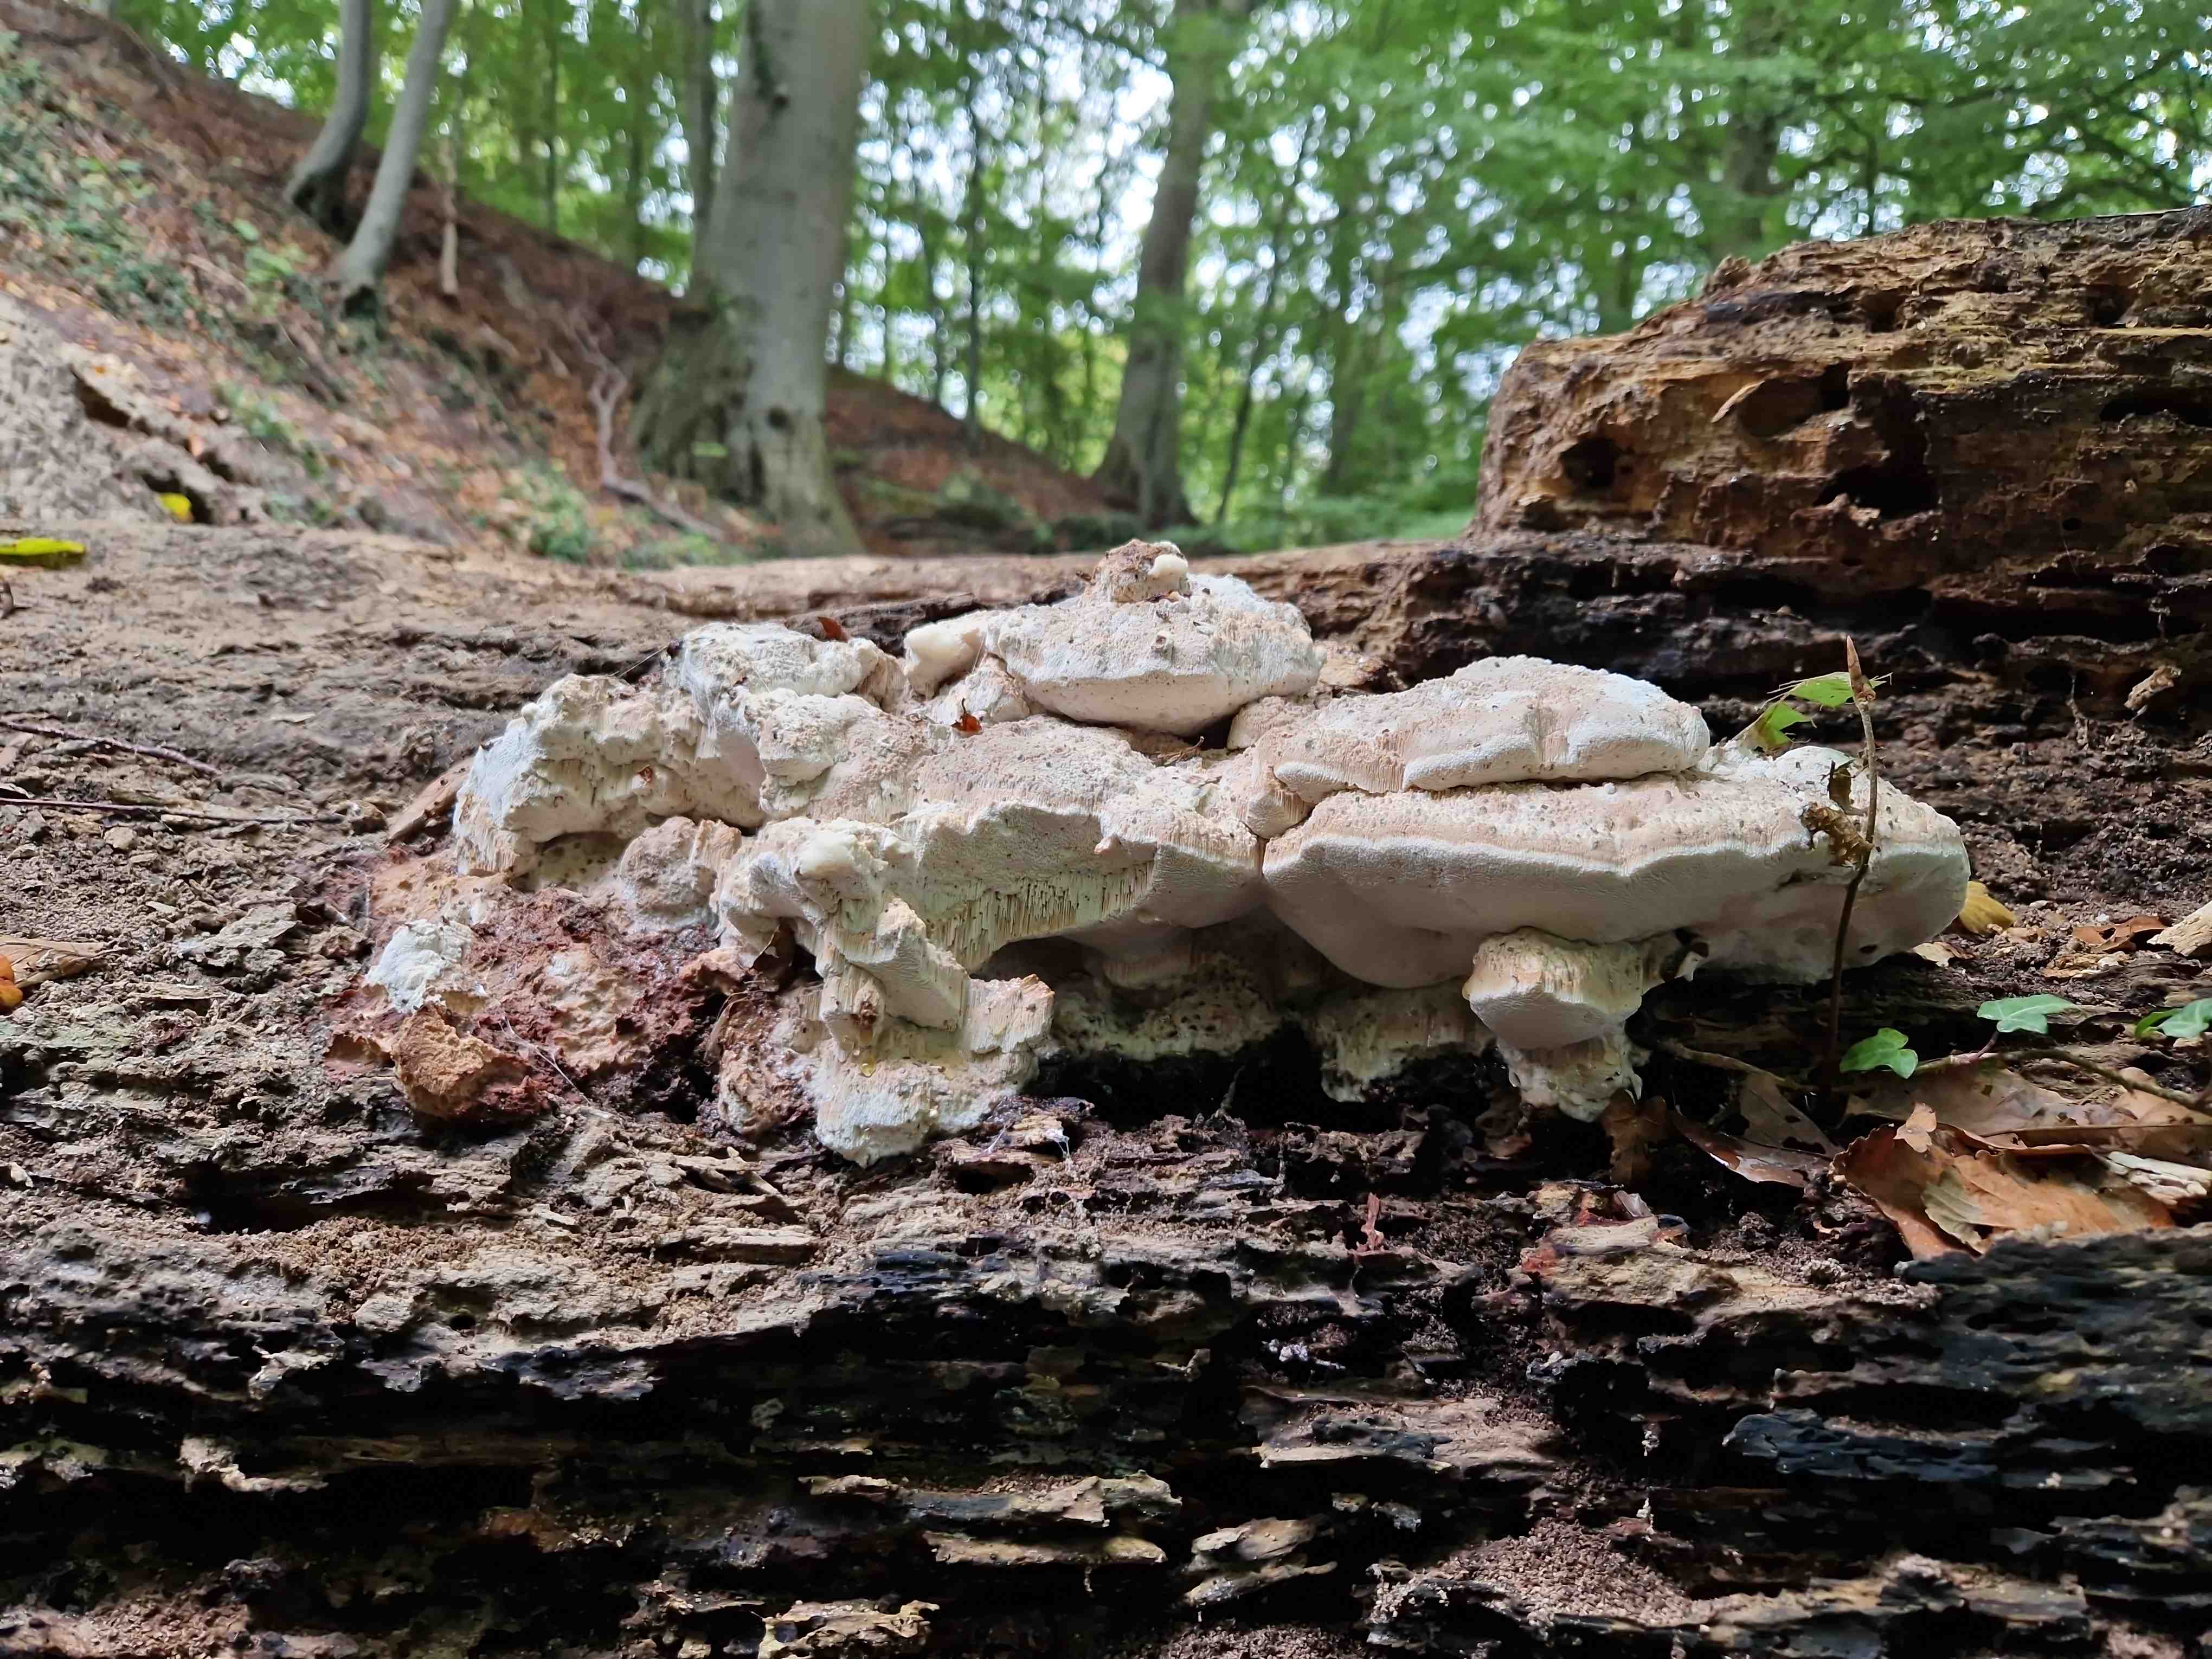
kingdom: Fungi
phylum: Basidiomycota
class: Agaricomycetes
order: Polyporales
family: Meruliaceae
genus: Pappia
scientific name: Pappia fissilis
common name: rosa fedtporesvamp
